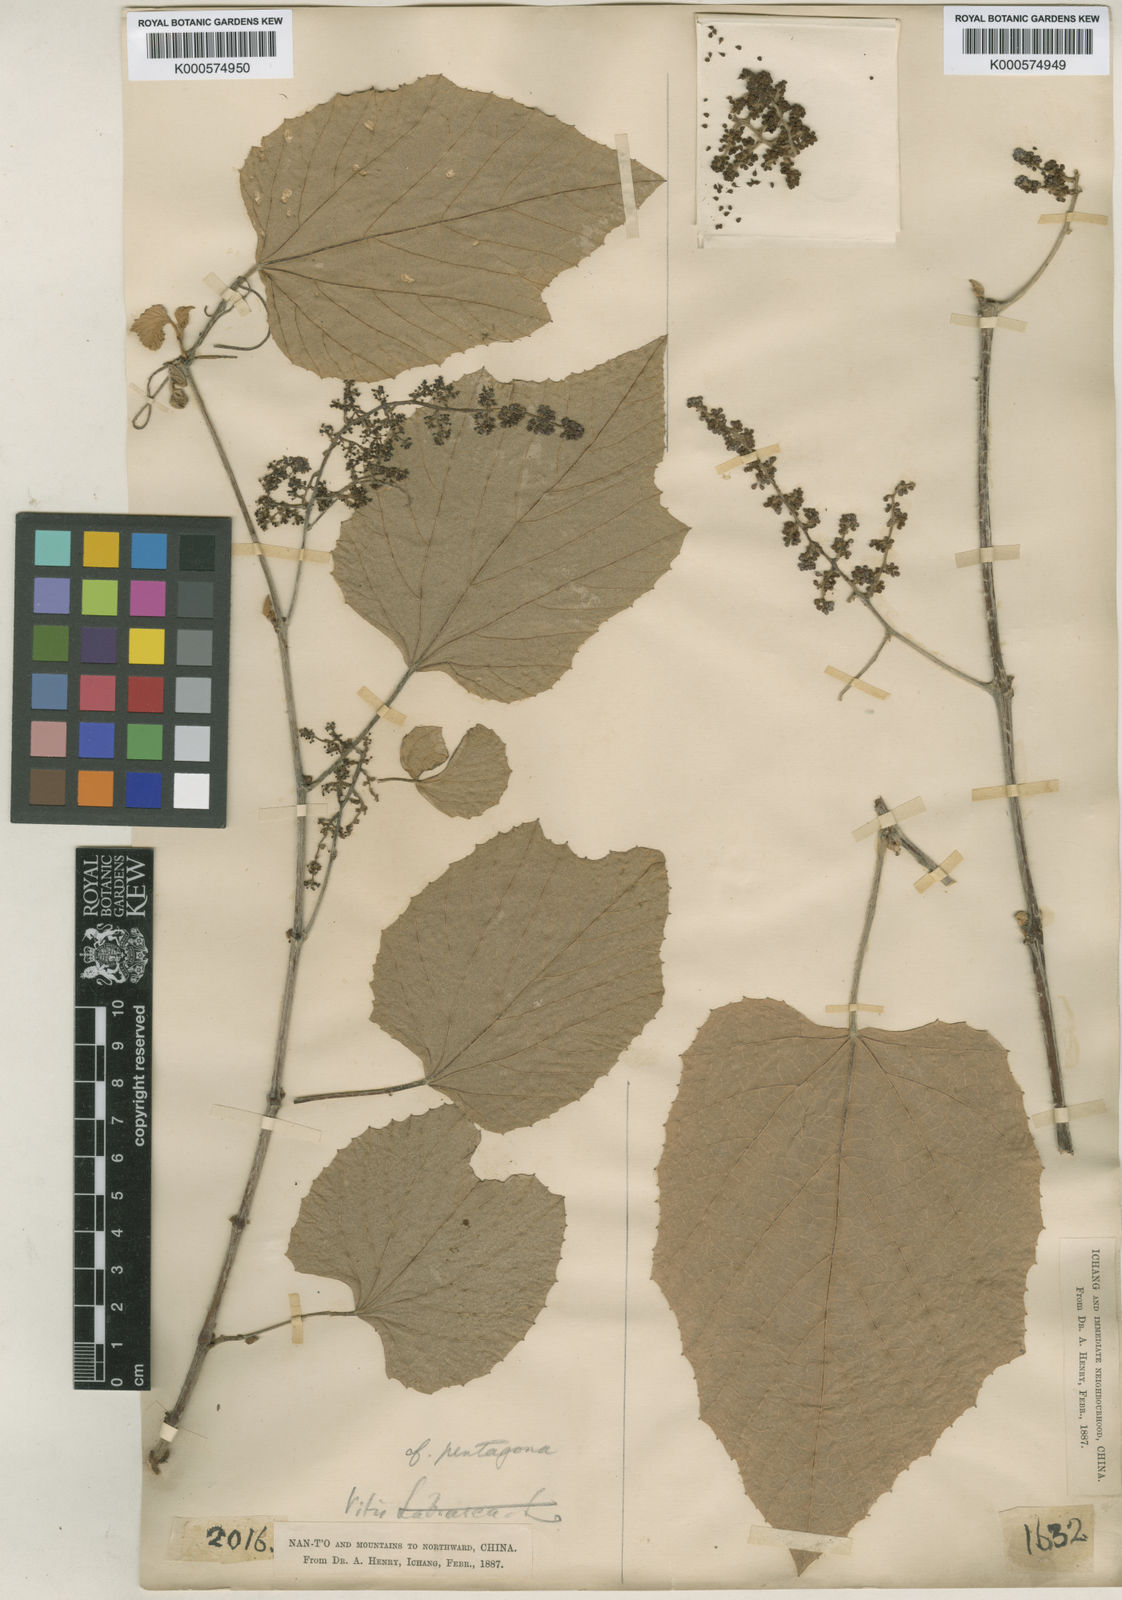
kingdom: Plantae
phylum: Tracheophyta
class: Magnoliopsida
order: Vitales
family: Vitaceae
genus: Cissus
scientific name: Cissus pentagona
